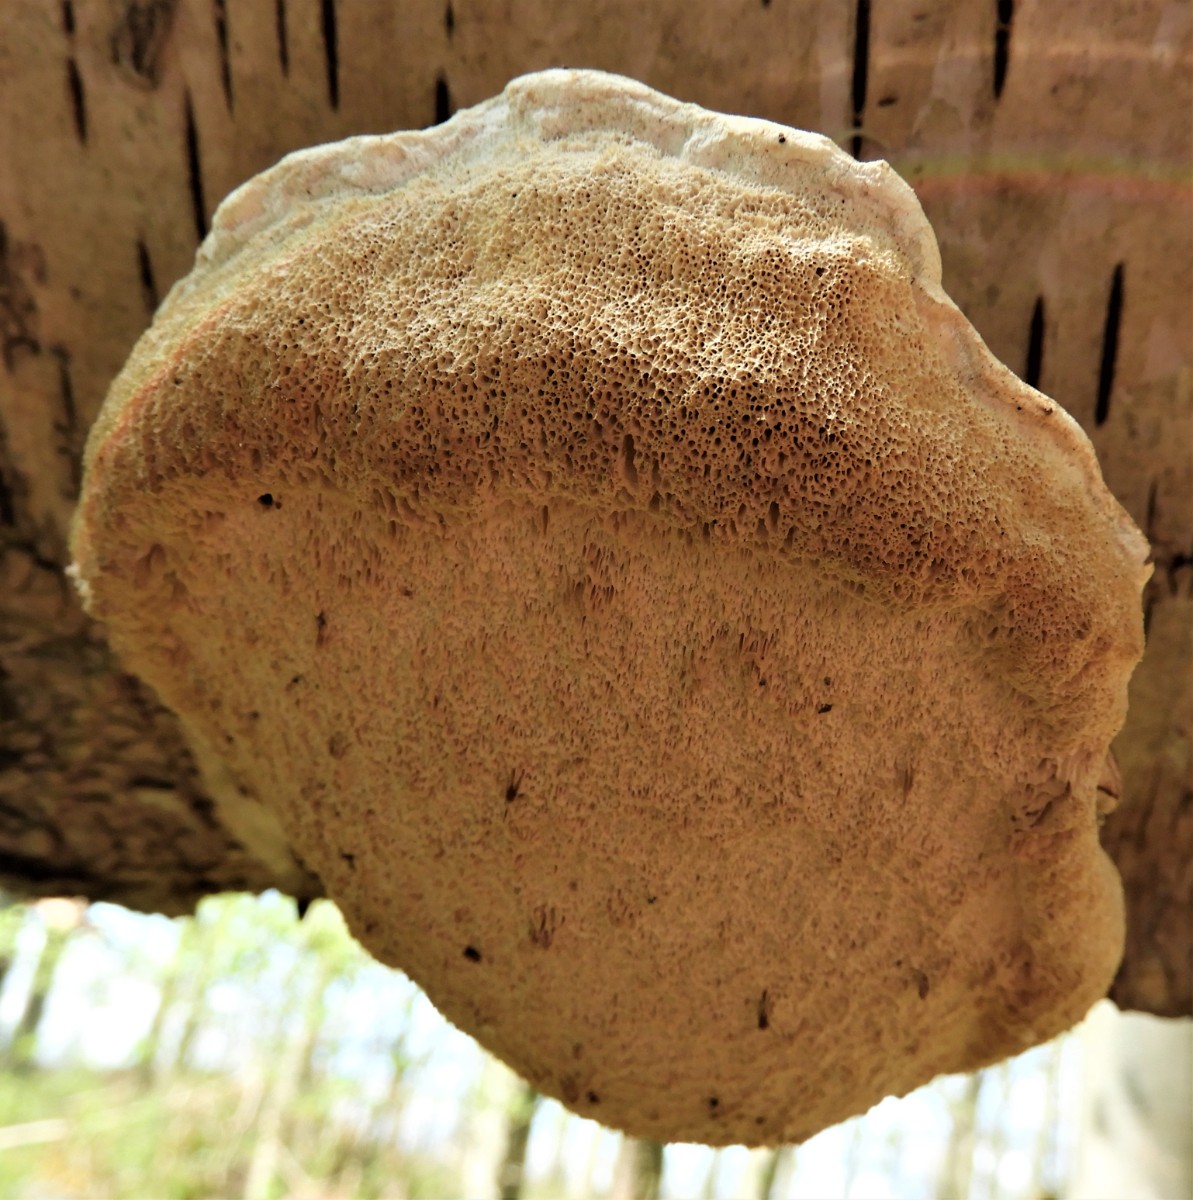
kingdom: Fungi
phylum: Basidiomycota
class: Agaricomycetes
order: Polyporales
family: Fomitopsidaceae
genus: Fomitopsis
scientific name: Fomitopsis betulina
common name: birkeporesvamp
